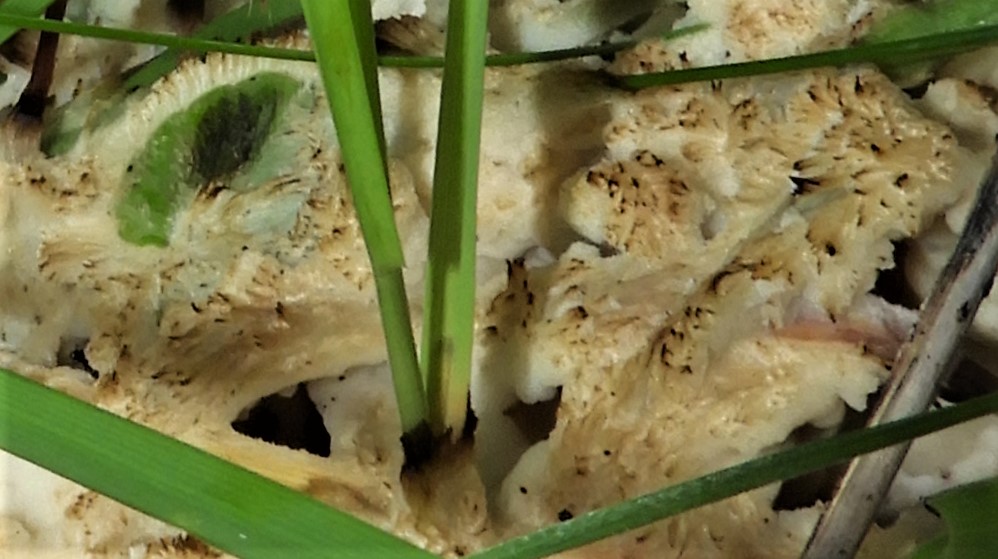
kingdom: Fungi
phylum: Basidiomycota
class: Agaricomycetes
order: Sebacinales
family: Sebacinaceae
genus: Sebacina
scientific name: Sebacina
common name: bævretalg
